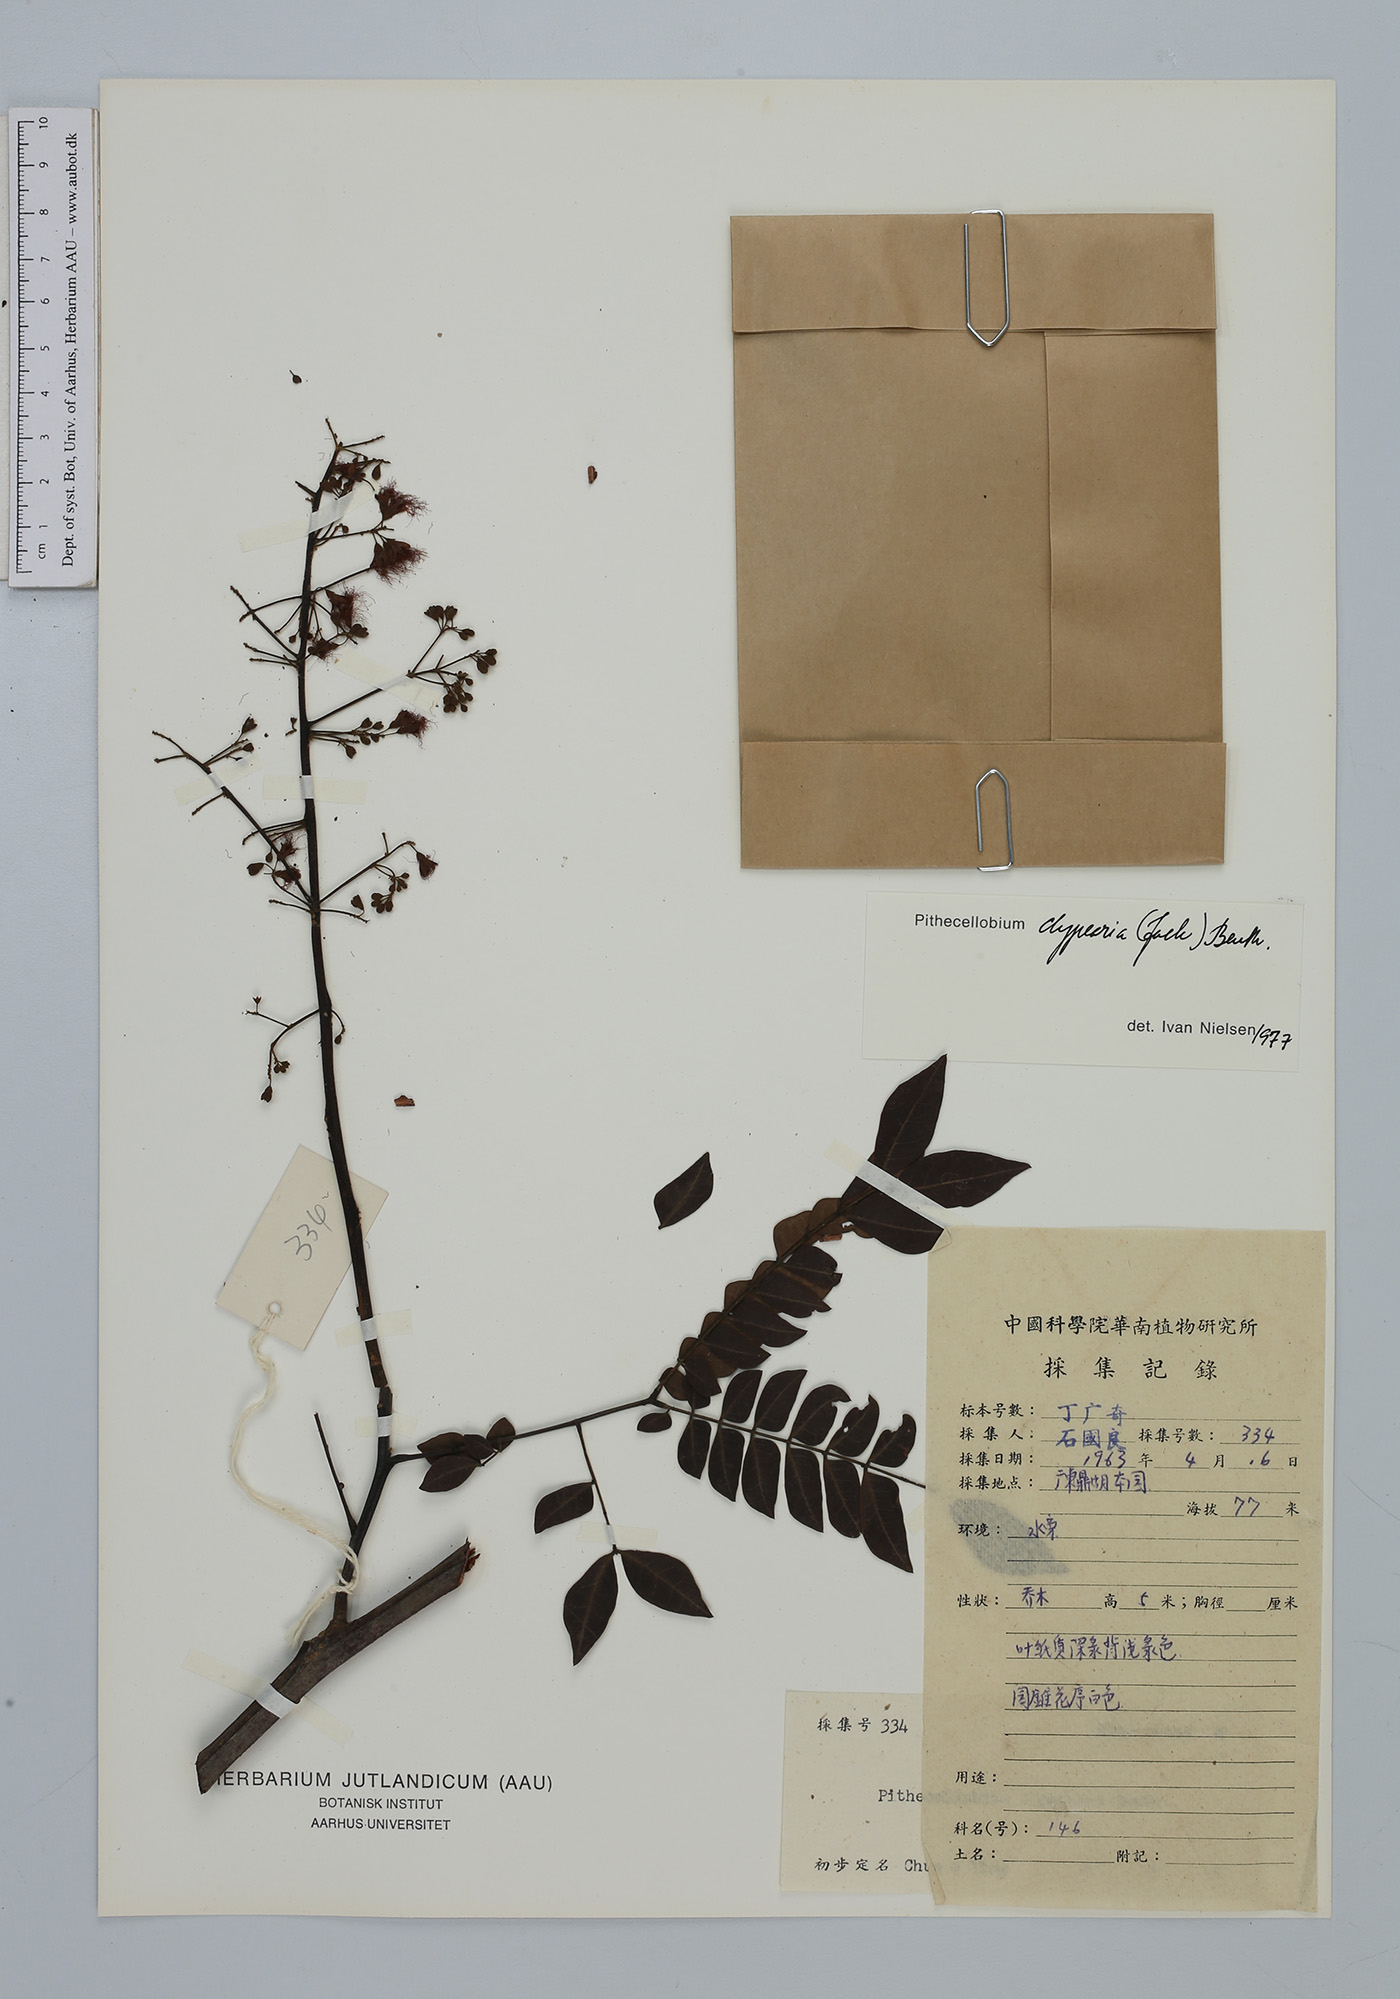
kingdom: Plantae
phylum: Tracheophyta
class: Magnoliopsida
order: Fabales
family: Fabaceae
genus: Archidendron
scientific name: Archidendron clypearia
